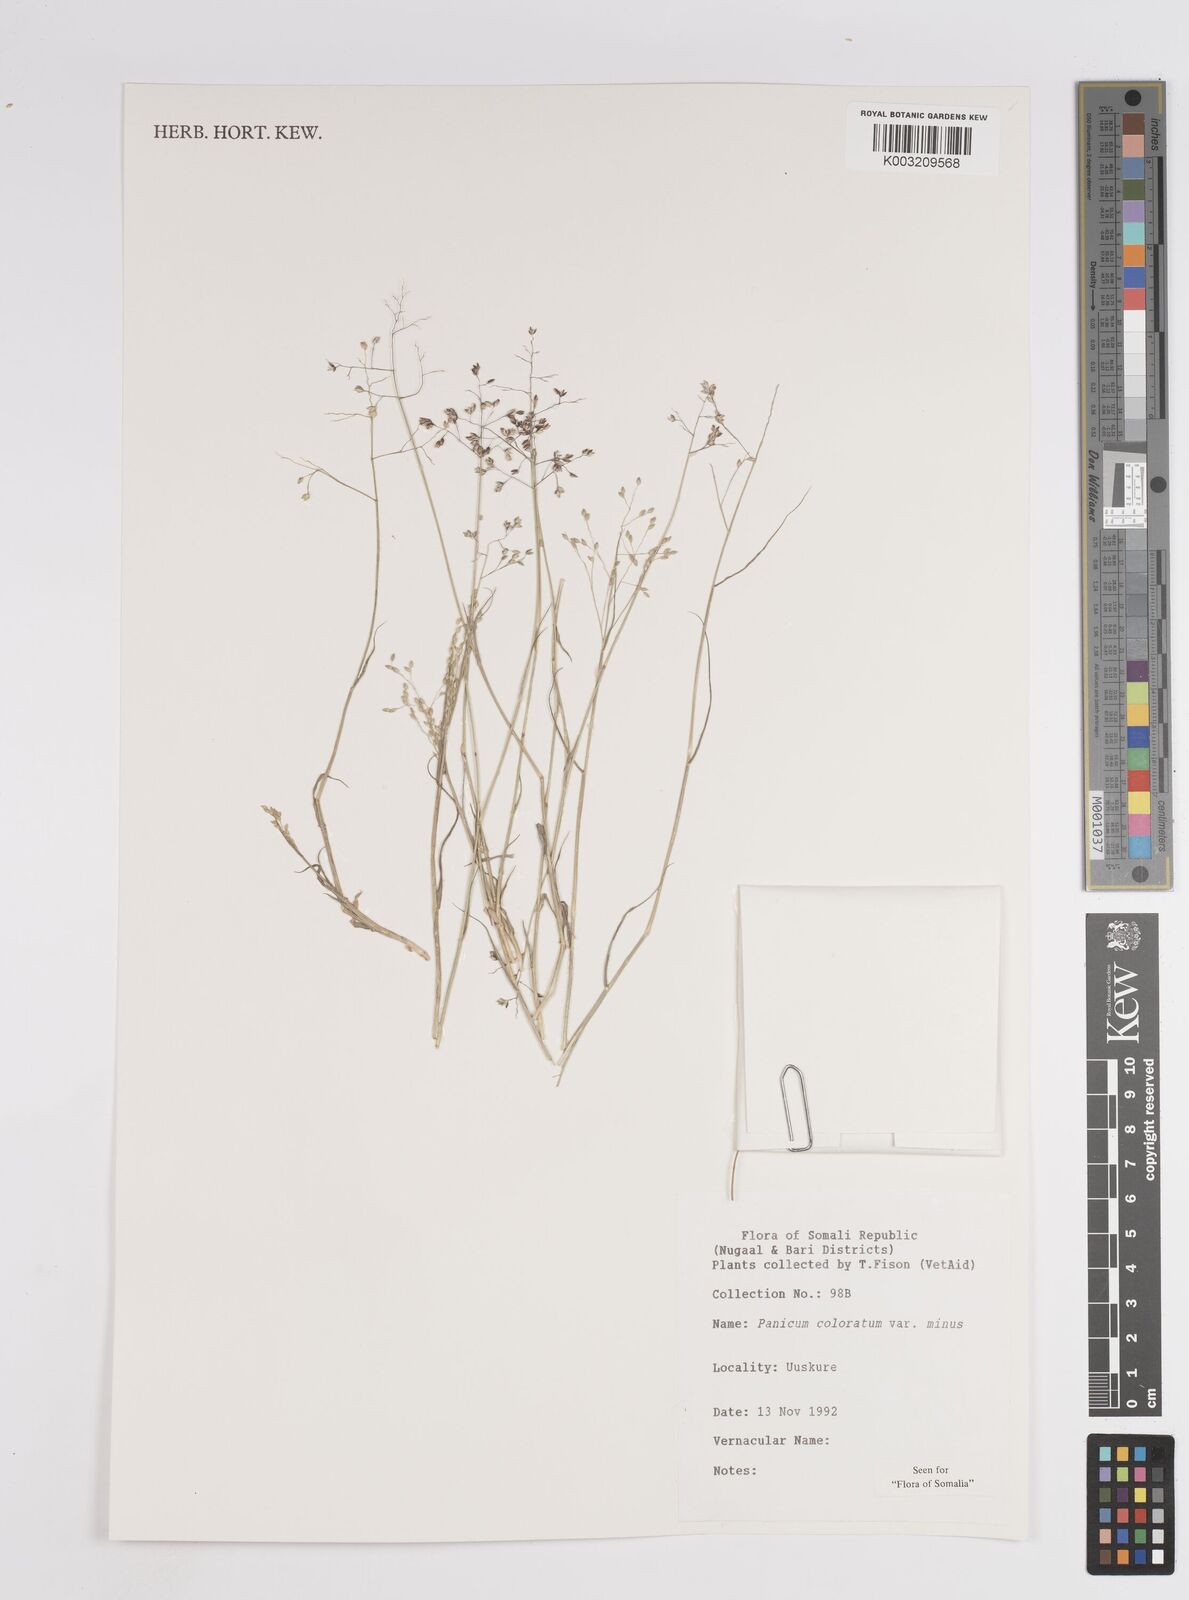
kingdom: Plantae
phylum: Tracheophyta
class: Liliopsida
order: Poales
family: Poaceae
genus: Panicum
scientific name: Panicum coloratum
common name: Kleingrass
